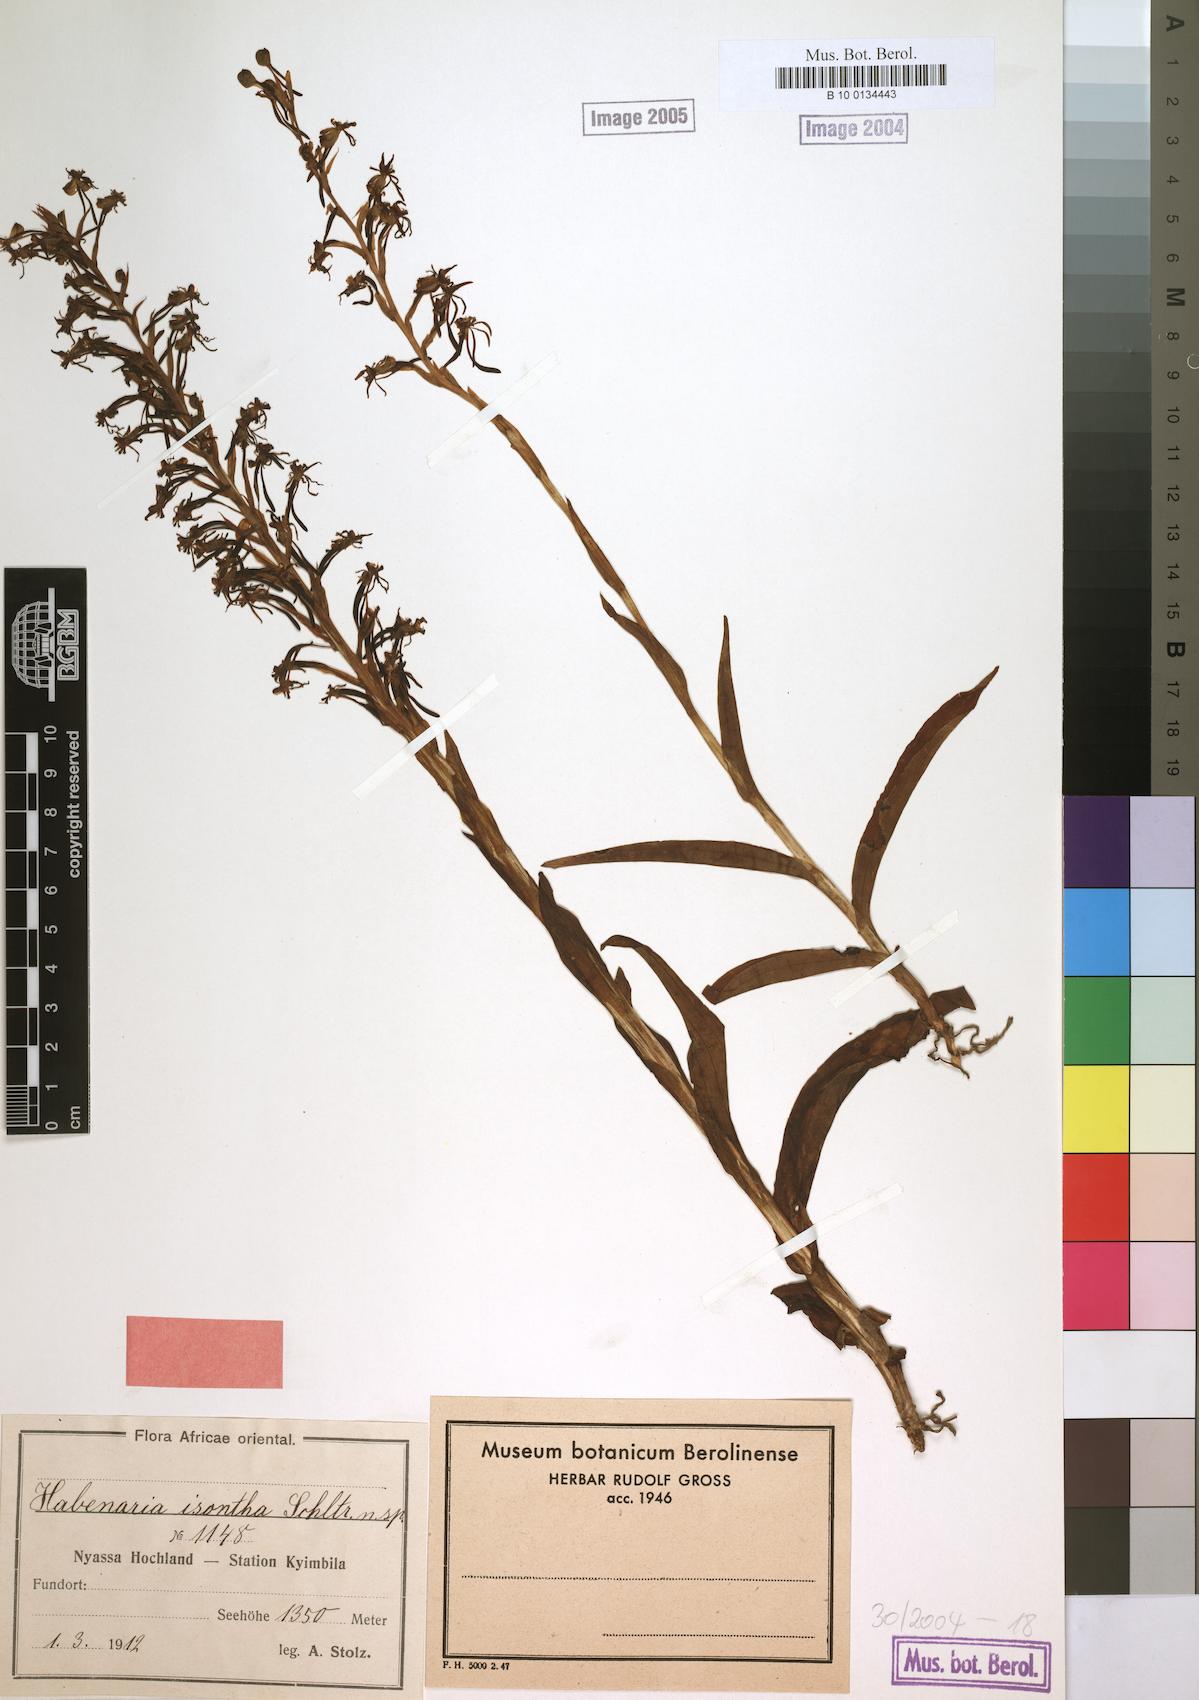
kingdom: Plantae
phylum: Tracheophyta
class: Liliopsida
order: Asparagales
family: Orchidaceae
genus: Habenaria
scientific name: Habenaria isoantha
